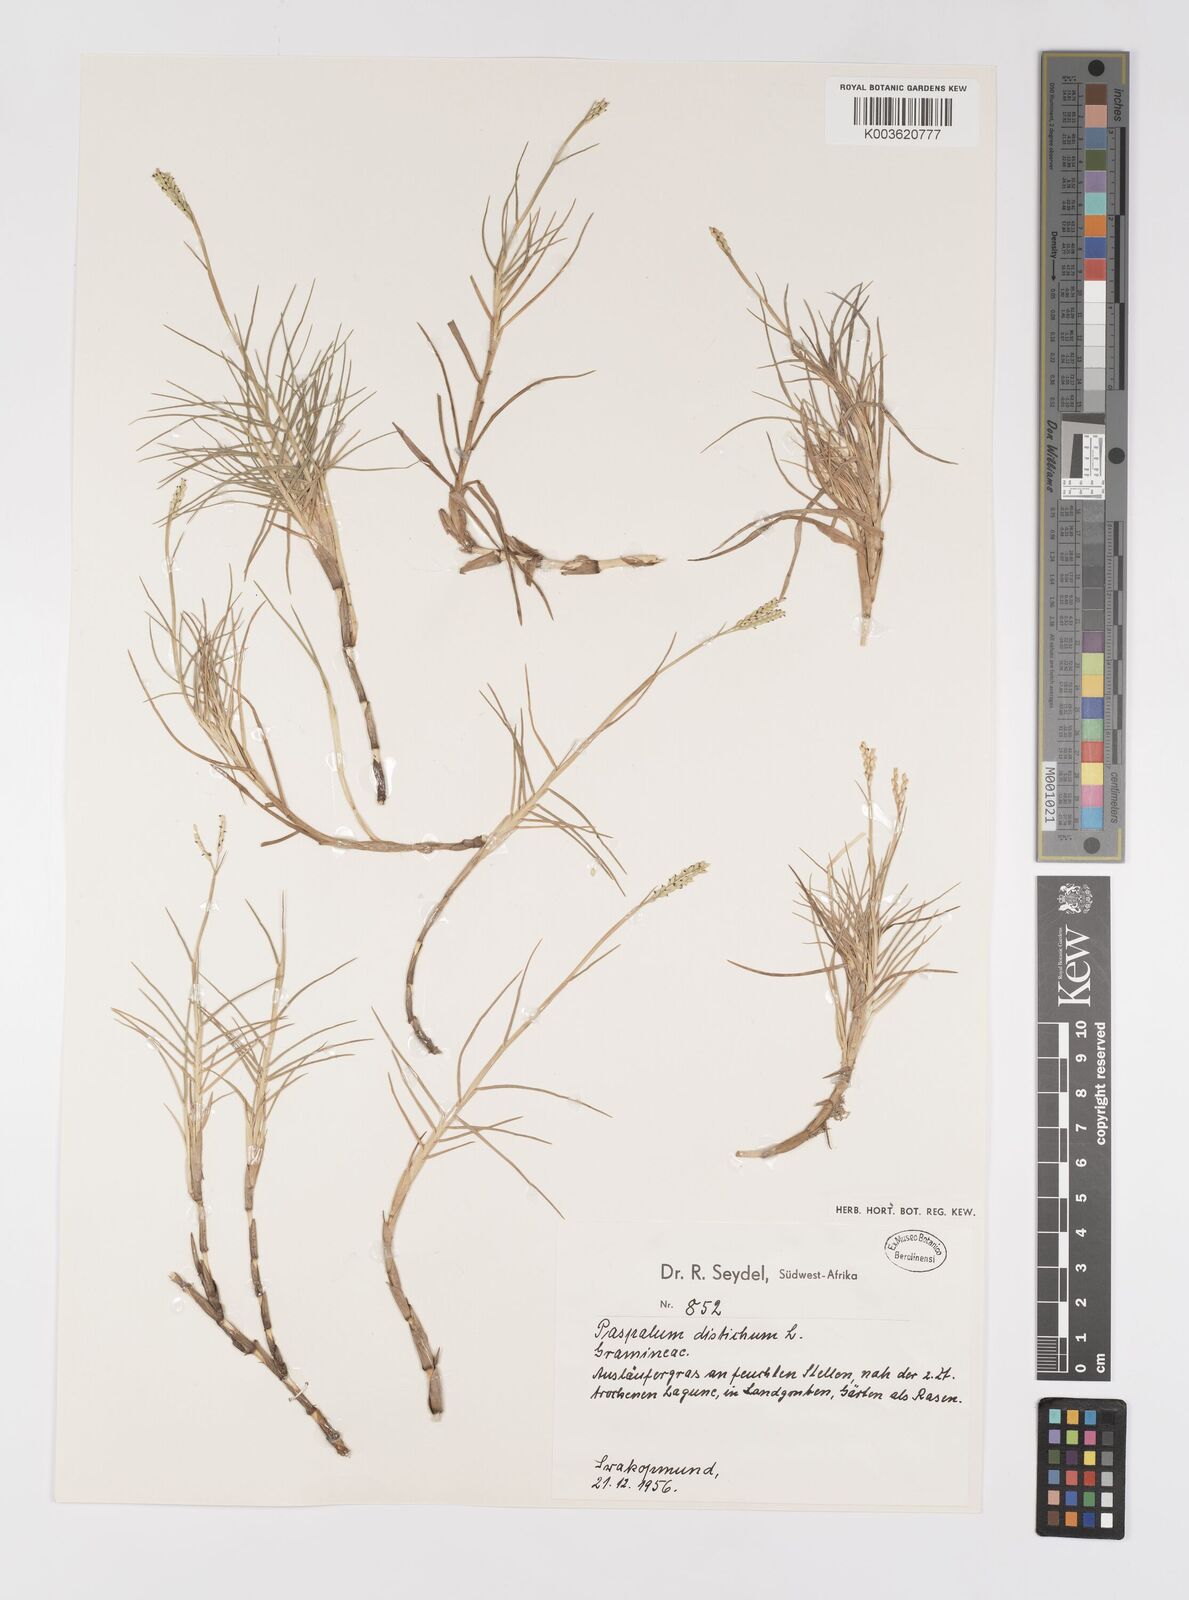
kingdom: Plantae
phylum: Tracheophyta
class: Liliopsida
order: Poales
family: Poaceae
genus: Paspalum
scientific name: Paspalum vaginatum
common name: Seashore paspalum
